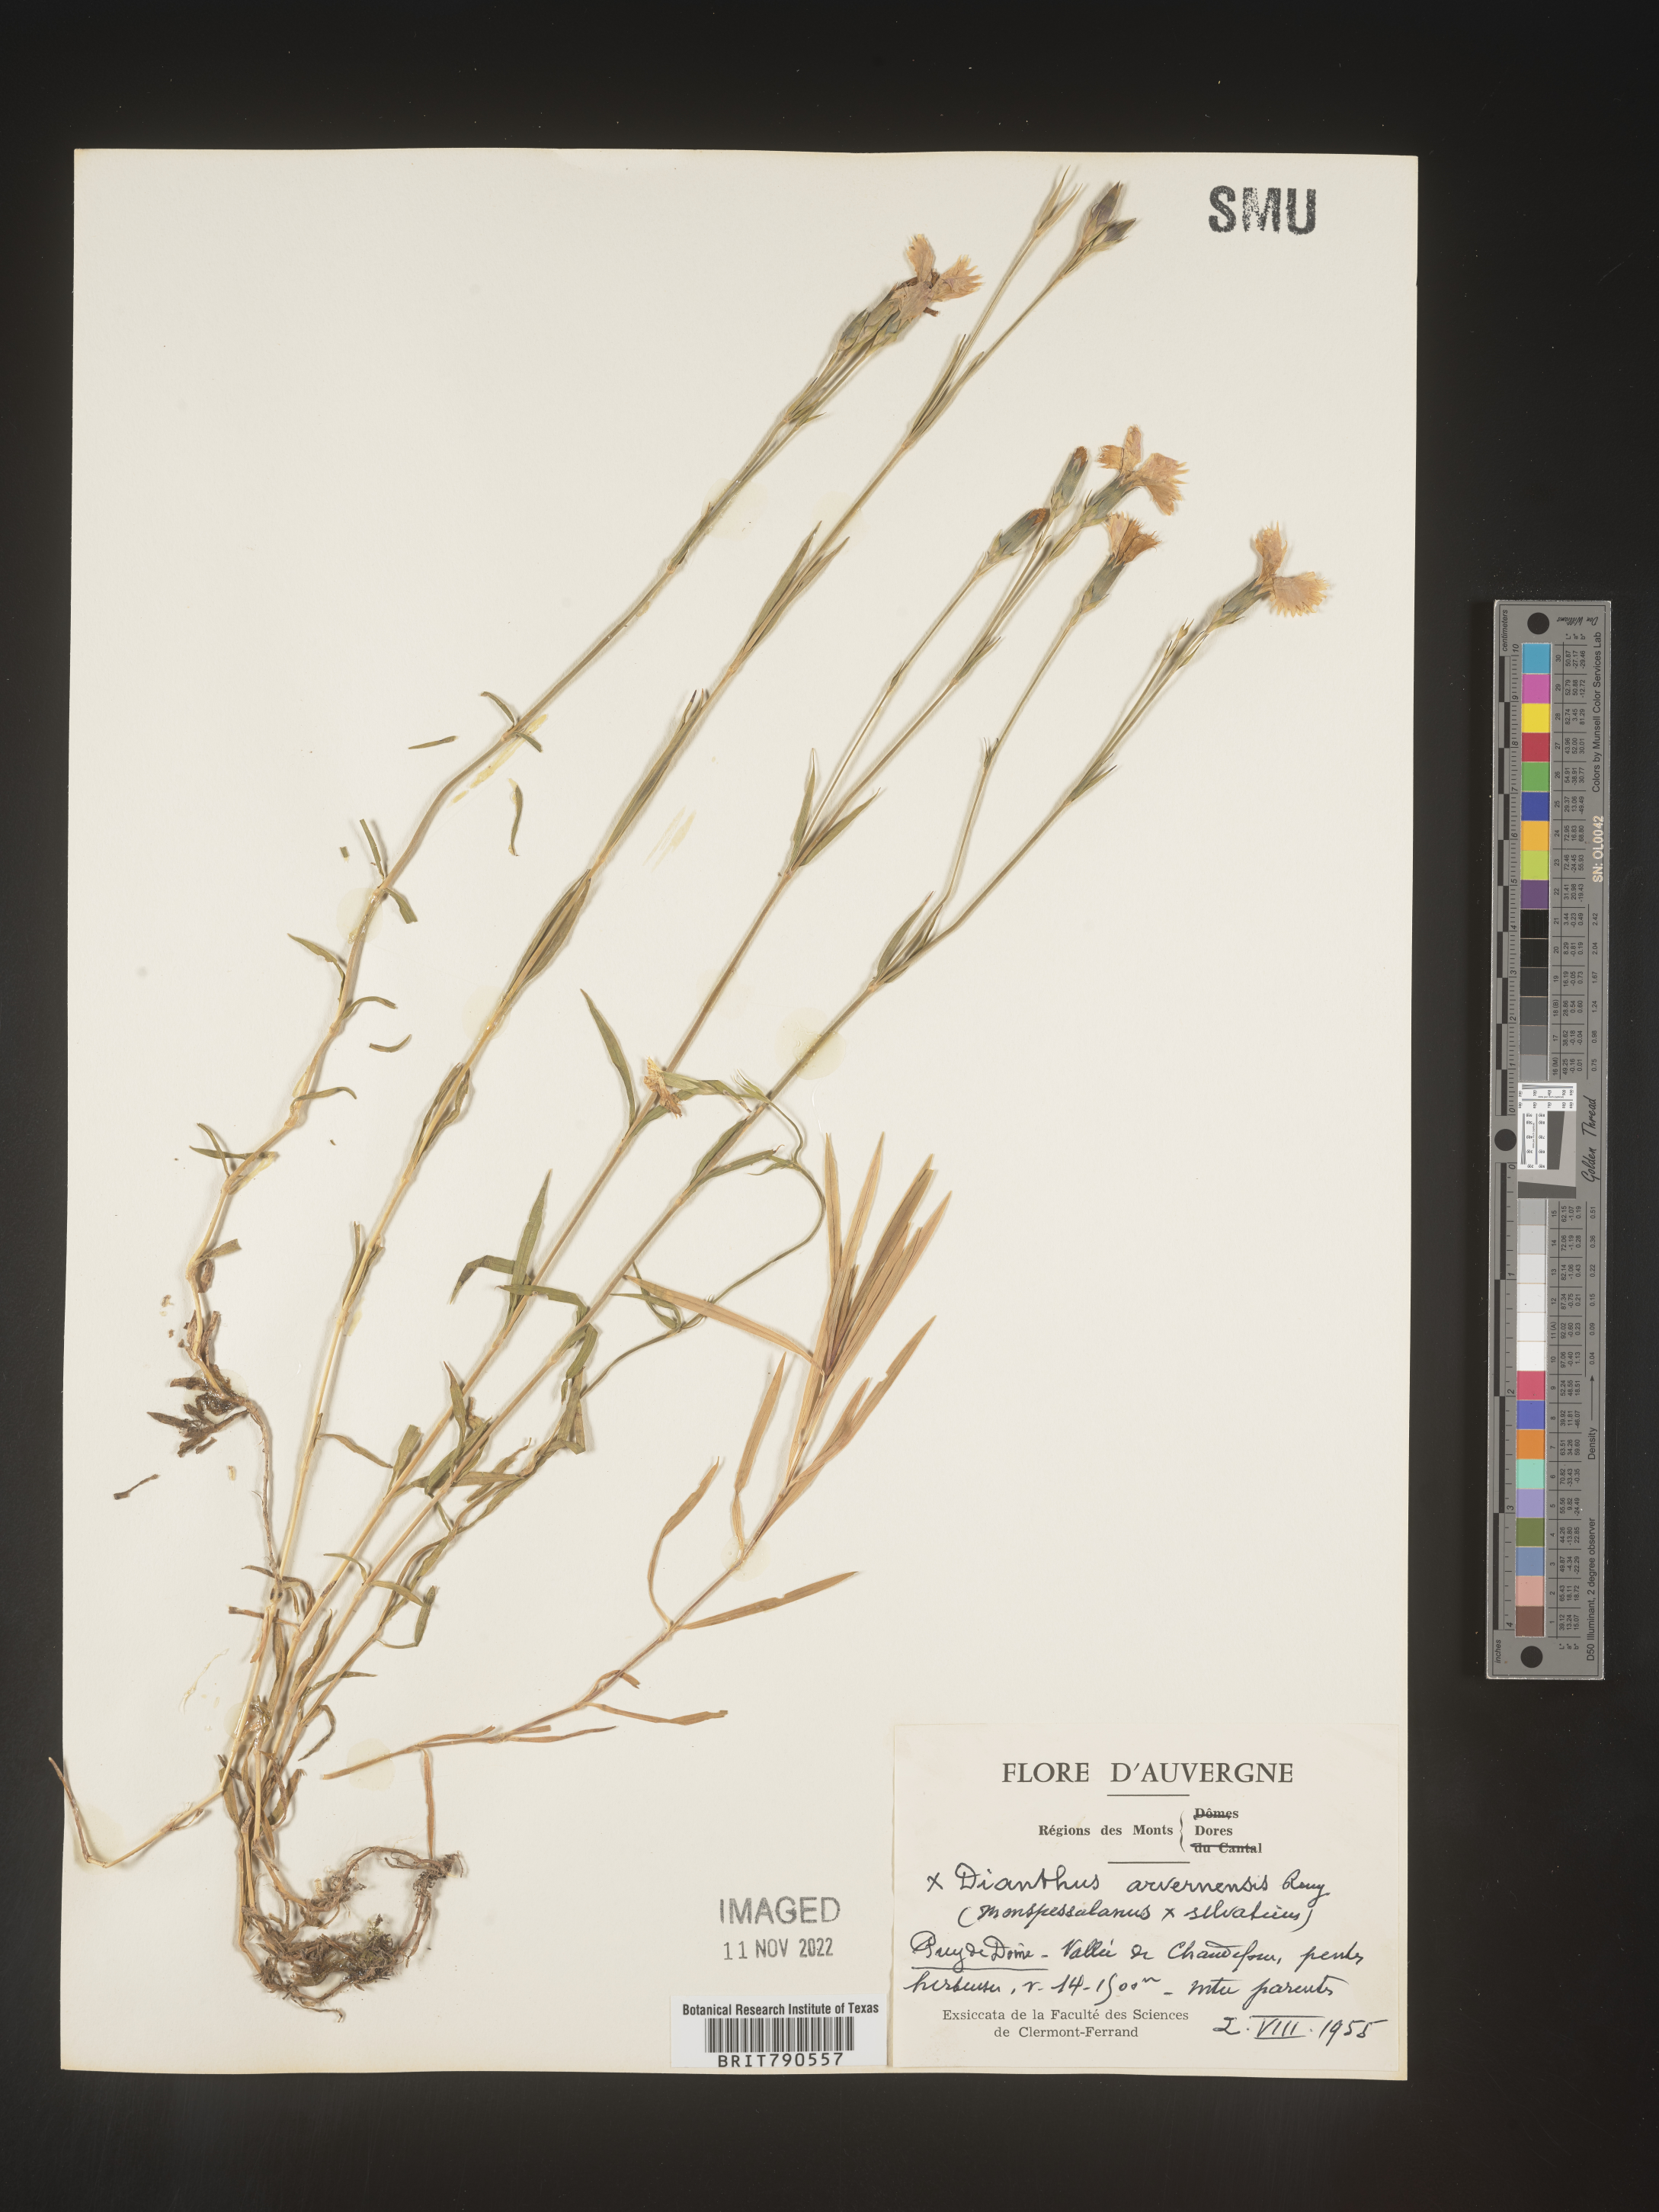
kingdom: Plantae
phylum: Tracheophyta
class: Magnoliopsida
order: Caryophyllales
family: Caryophyllaceae
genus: Dianthus
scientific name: Dianthus
